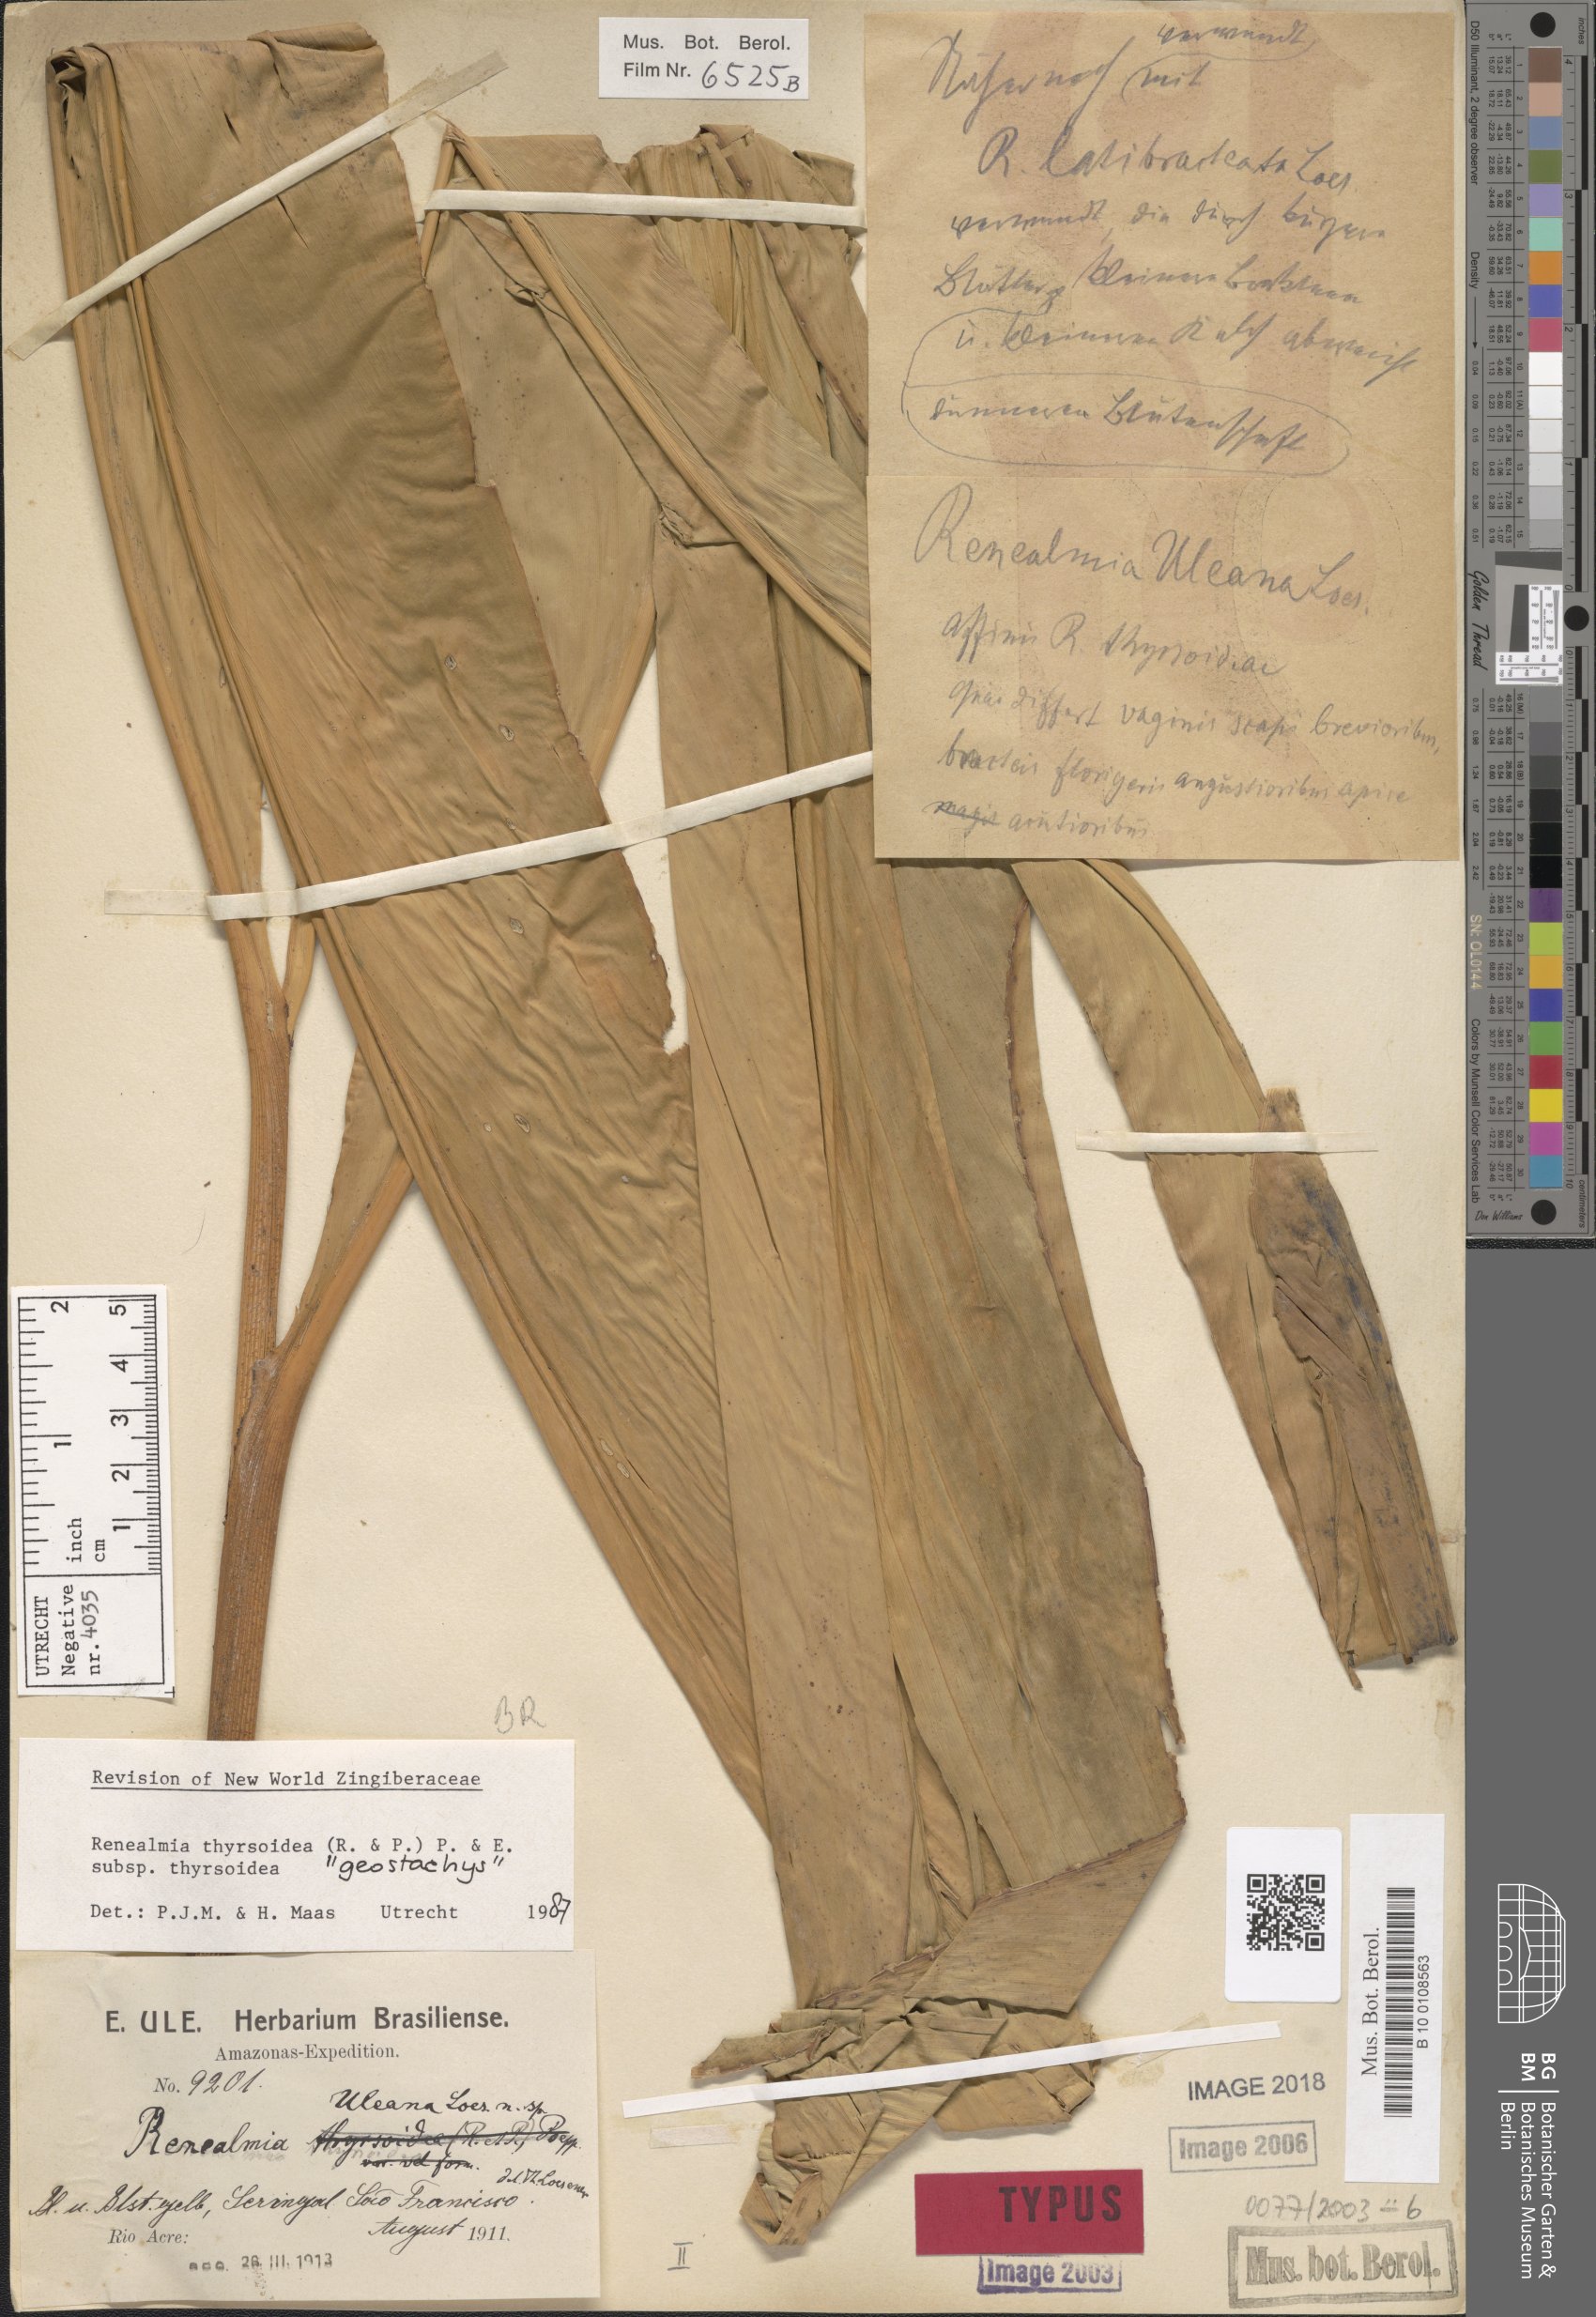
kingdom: Plantae
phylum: Tracheophyta
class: Liliopsida
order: Zingiberales
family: Zingiberaceae
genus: Renealmia
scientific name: Renealmia thyrsoidea
